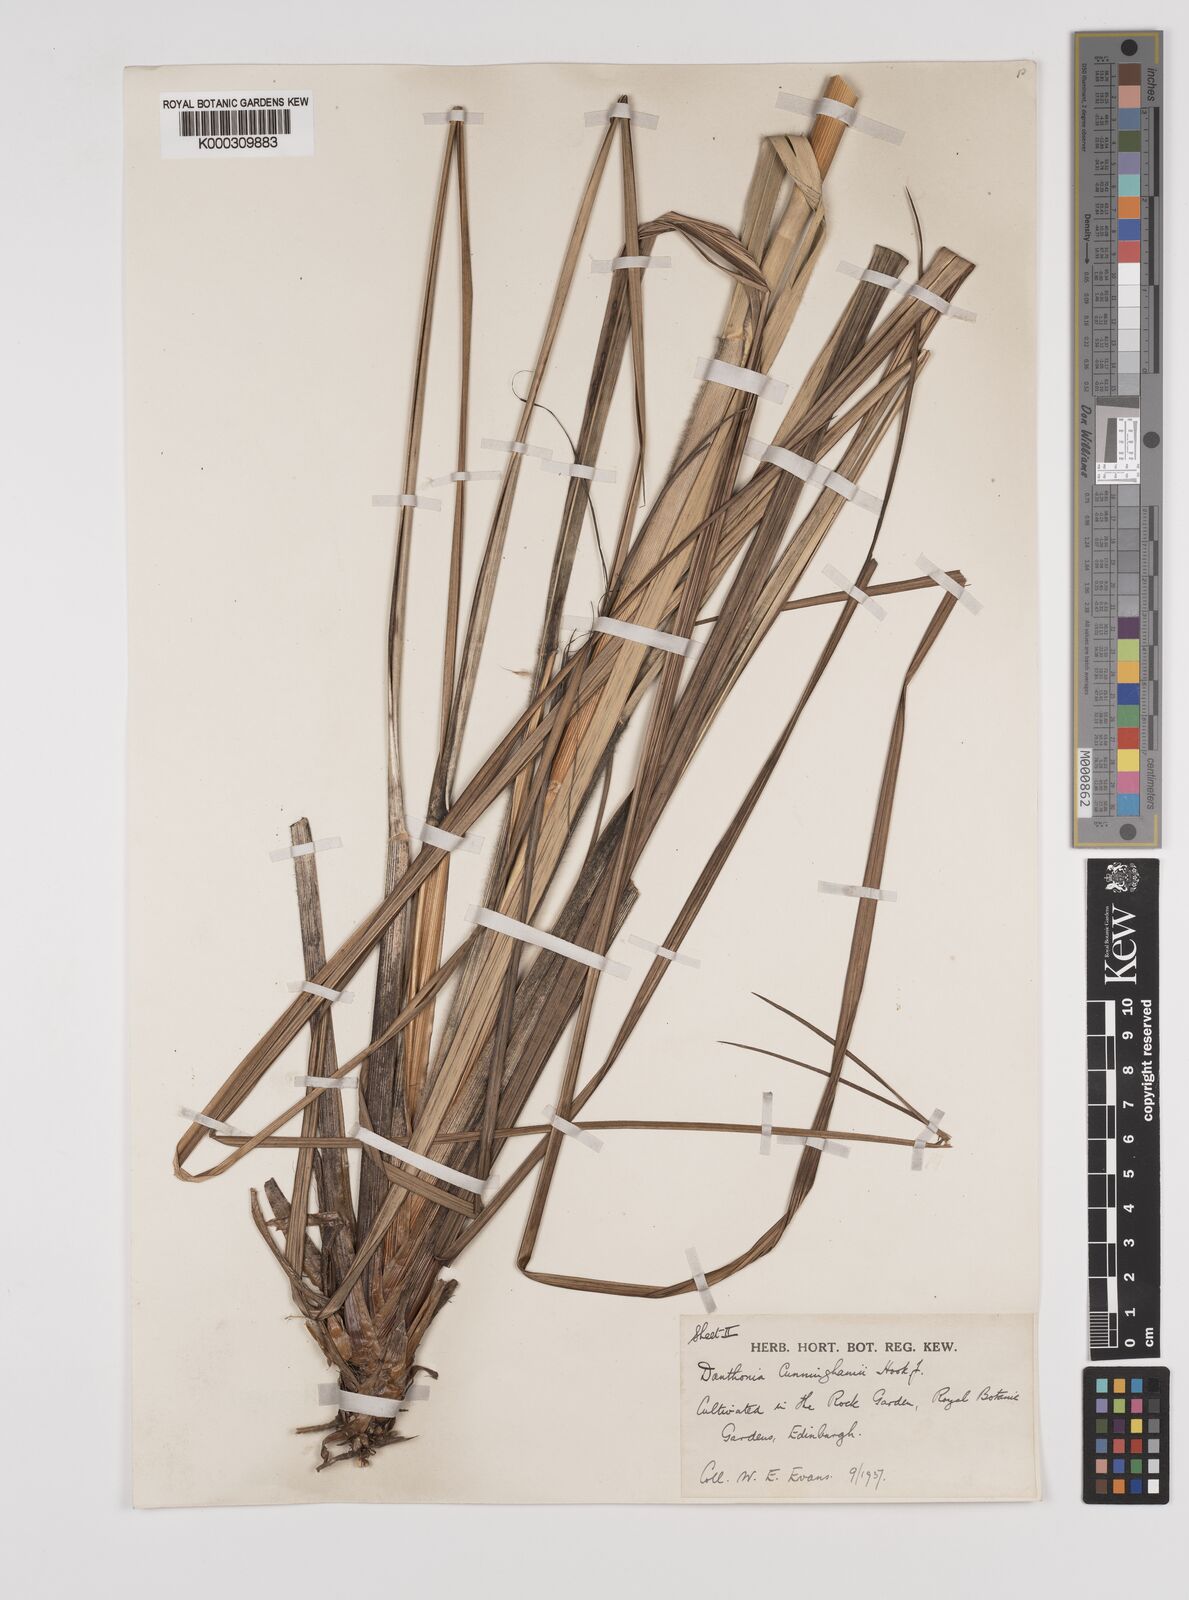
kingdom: Plantae
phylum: Tracheophyta
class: Liliopsida
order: Poales
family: Poaceae
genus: Chionochloa
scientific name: Chionochloa conspicua
